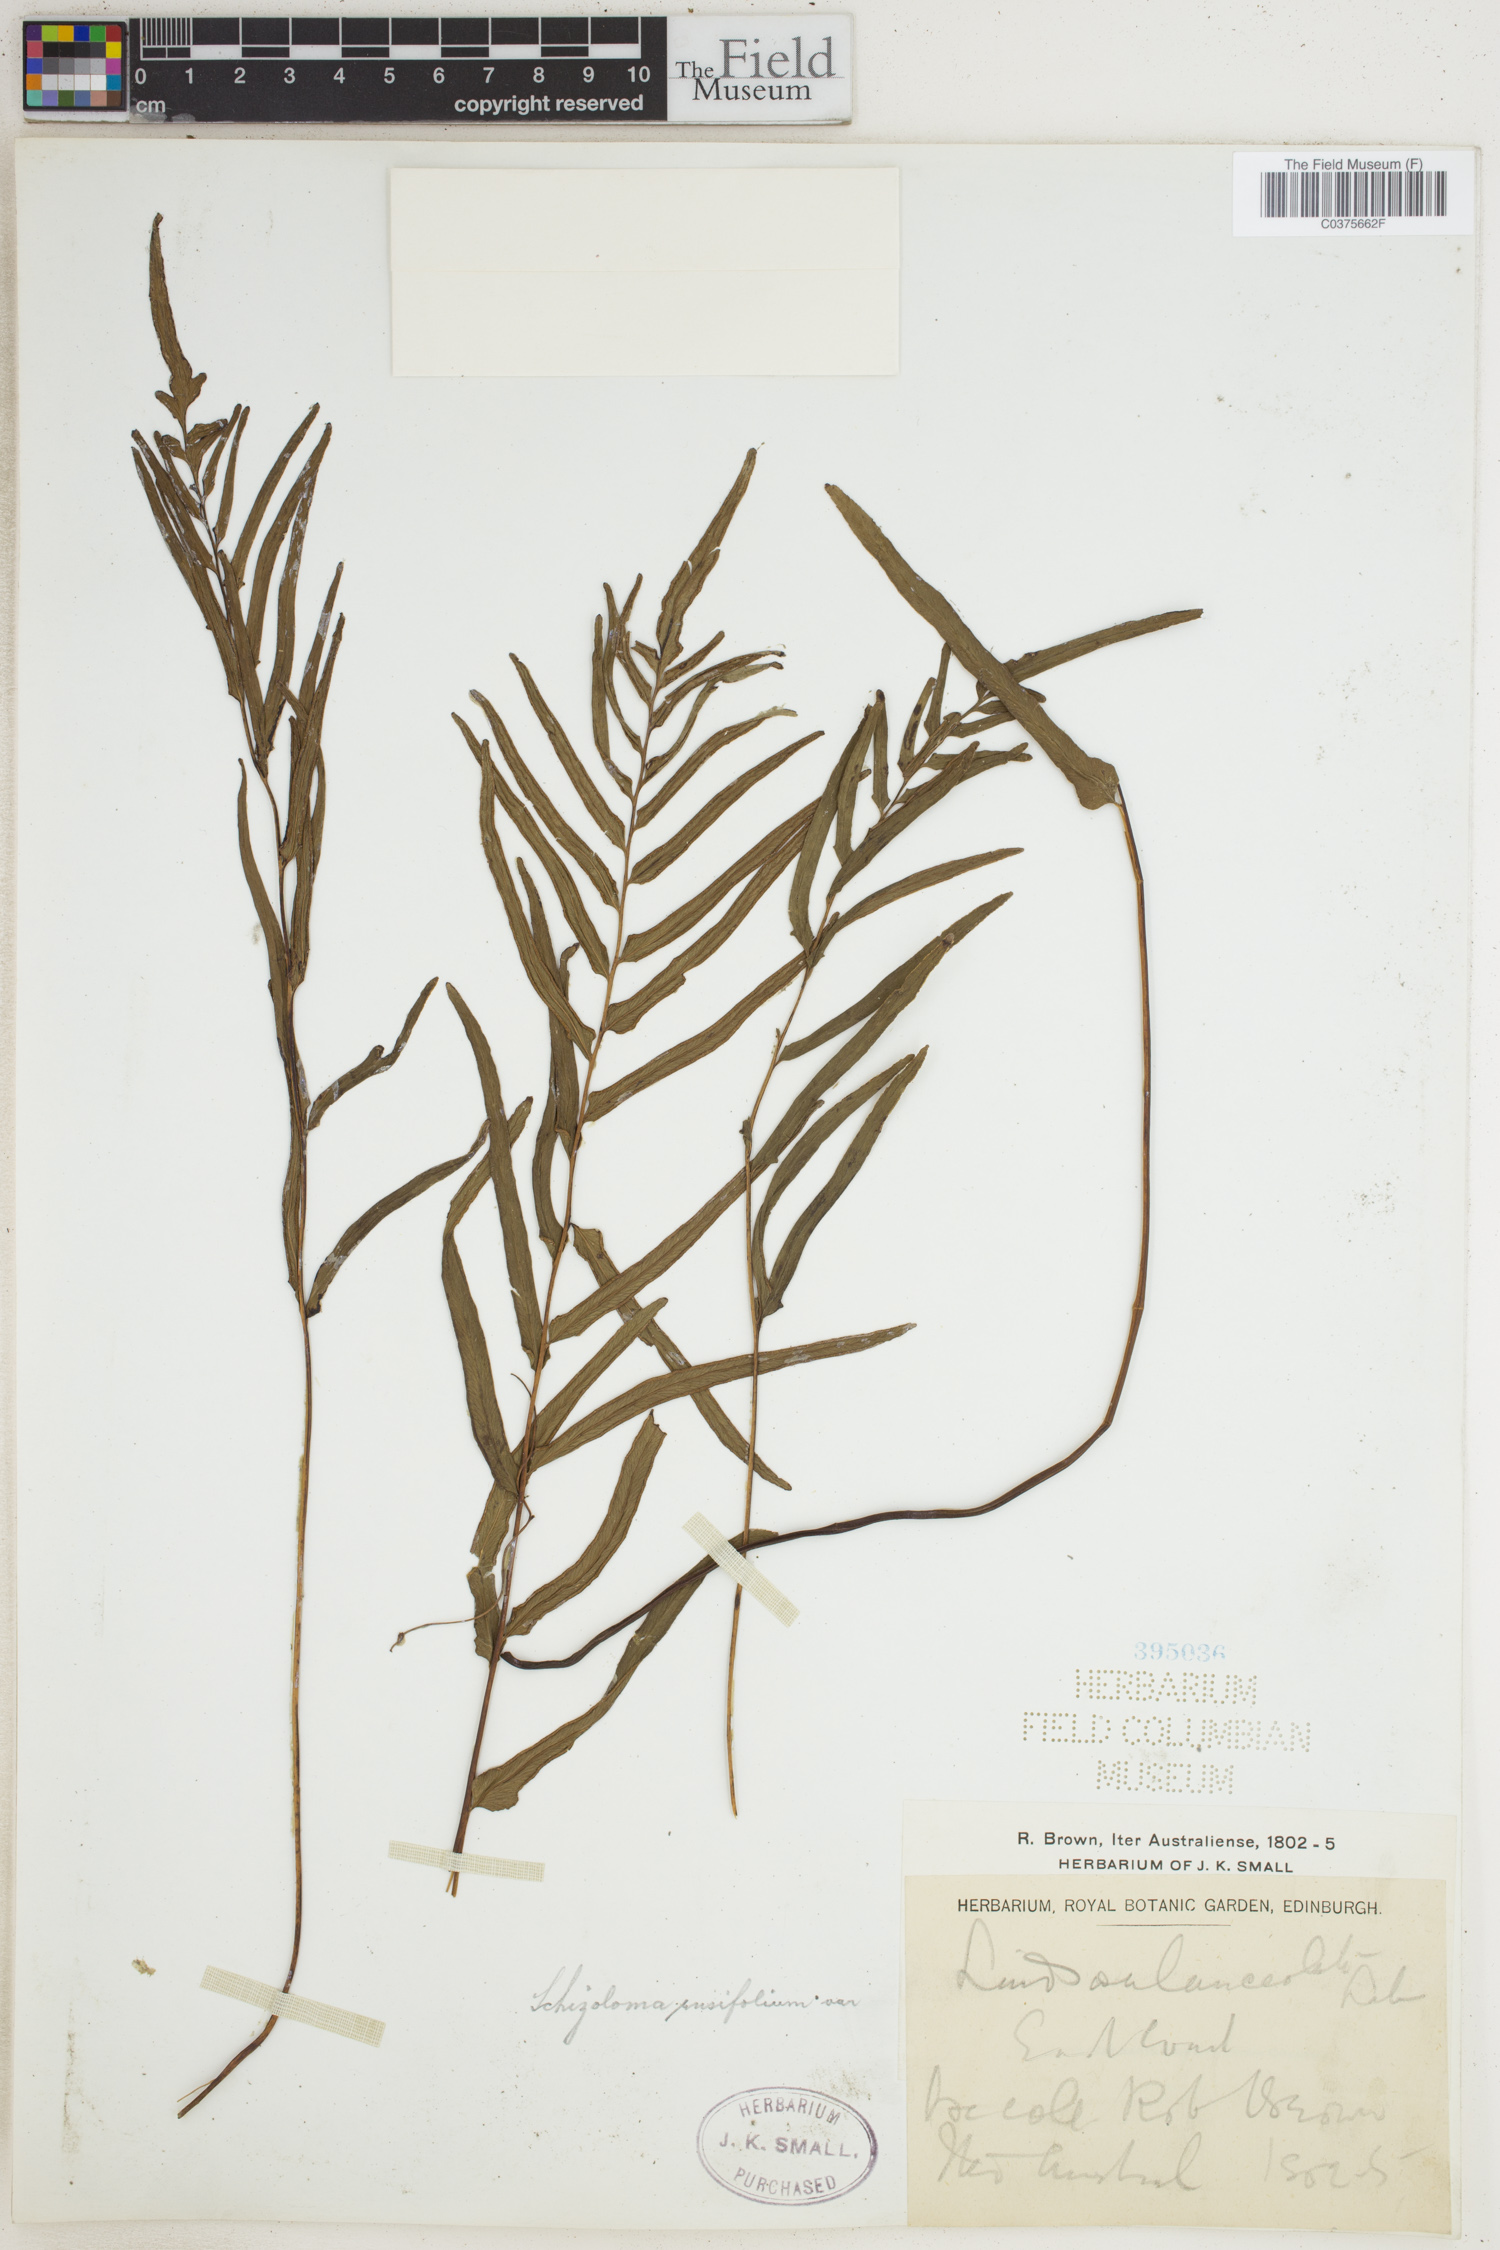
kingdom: Plantae
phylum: Tracheophyta
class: Polypodiopsida
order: Polypodiales
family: Lindsaeaceae
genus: Lindsaea
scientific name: Lindsaea ensifolia
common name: Graceful necklace fern
